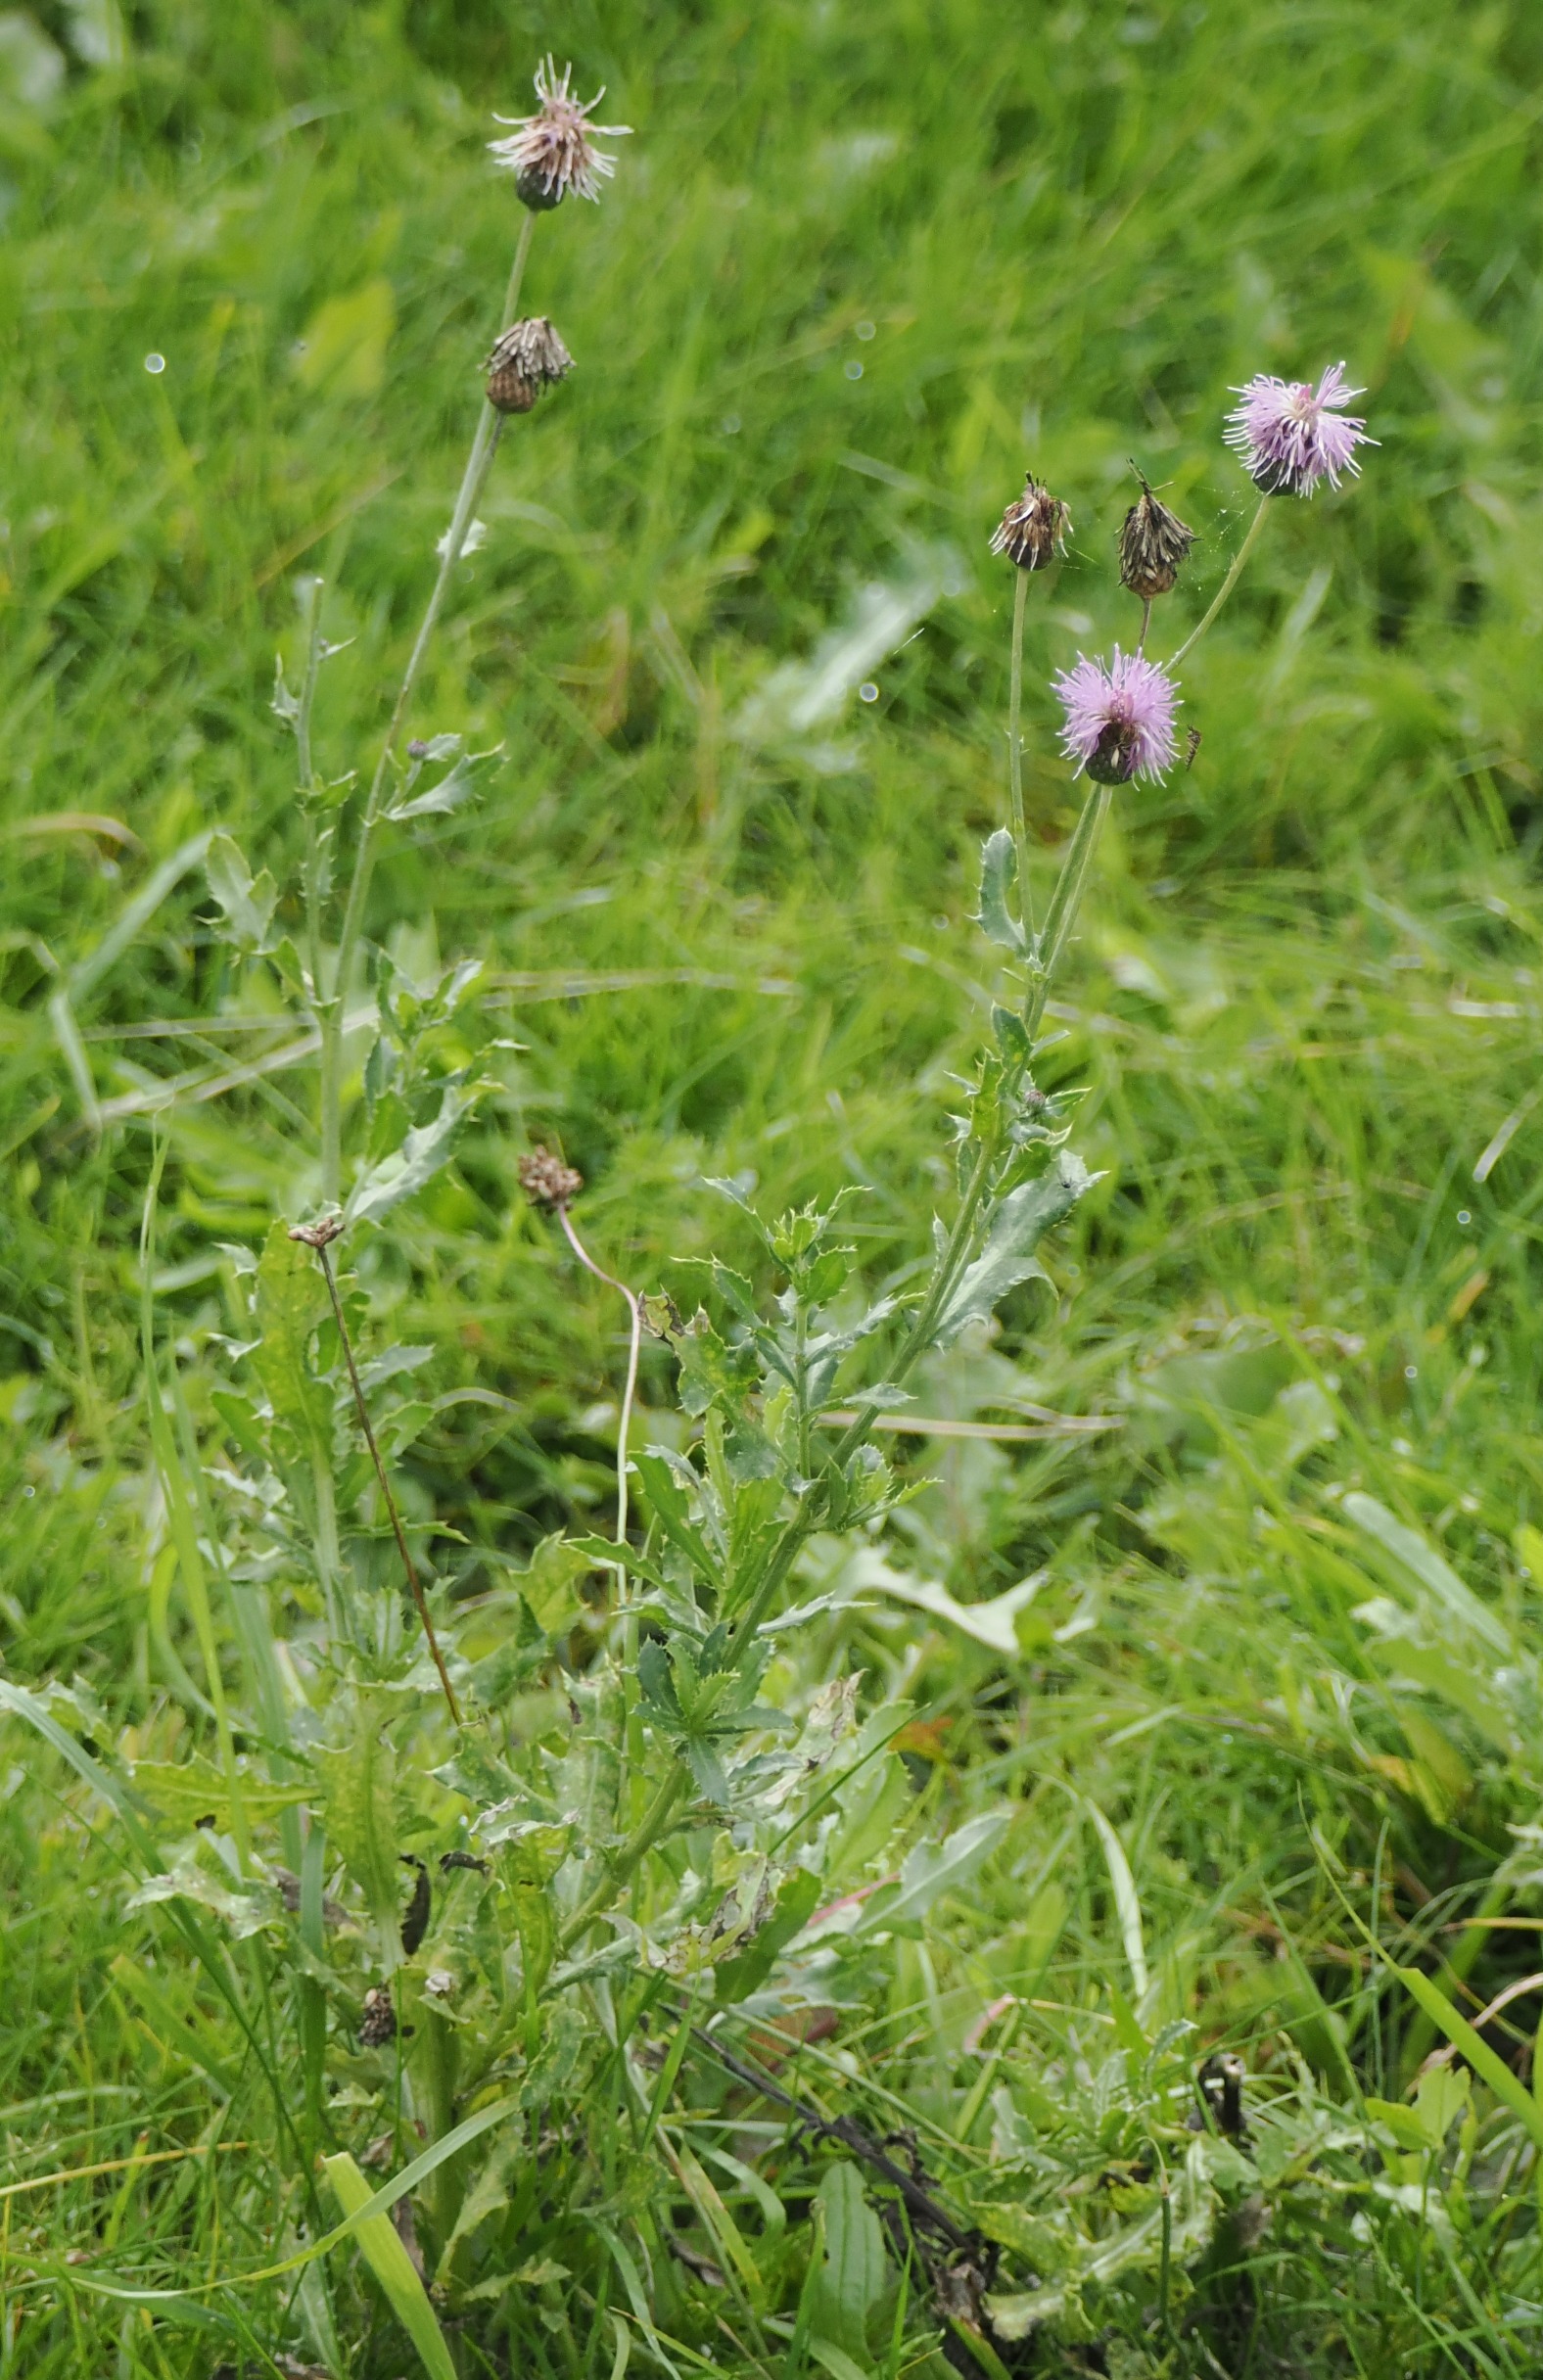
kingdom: Plantae
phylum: Tracheophyta
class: Magnoliopsida
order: Asterales
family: Asteraceae
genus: Cirsium
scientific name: Cirsium arvense
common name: Ager-tidsel
